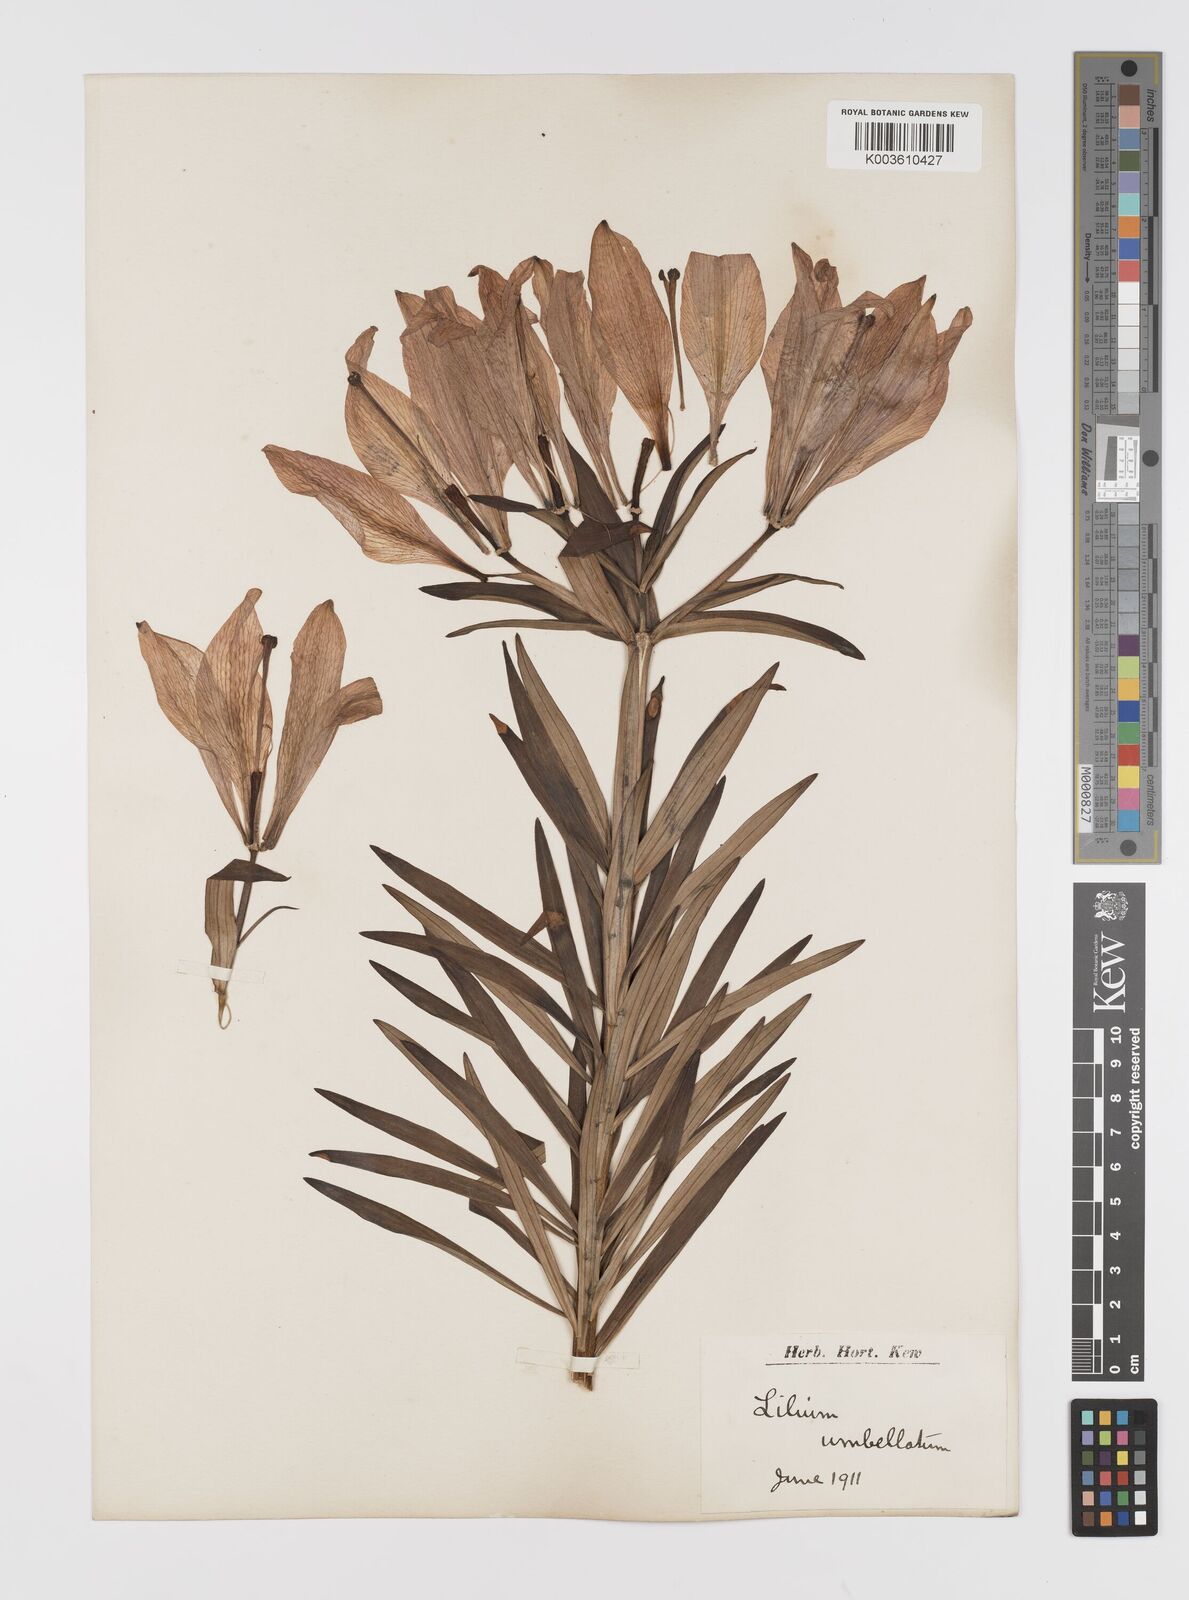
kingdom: Plantae
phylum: Tracheophyta
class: Liliopsida
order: Liliales
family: Liliaceae
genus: Lilium
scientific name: Lilium hollandicum
